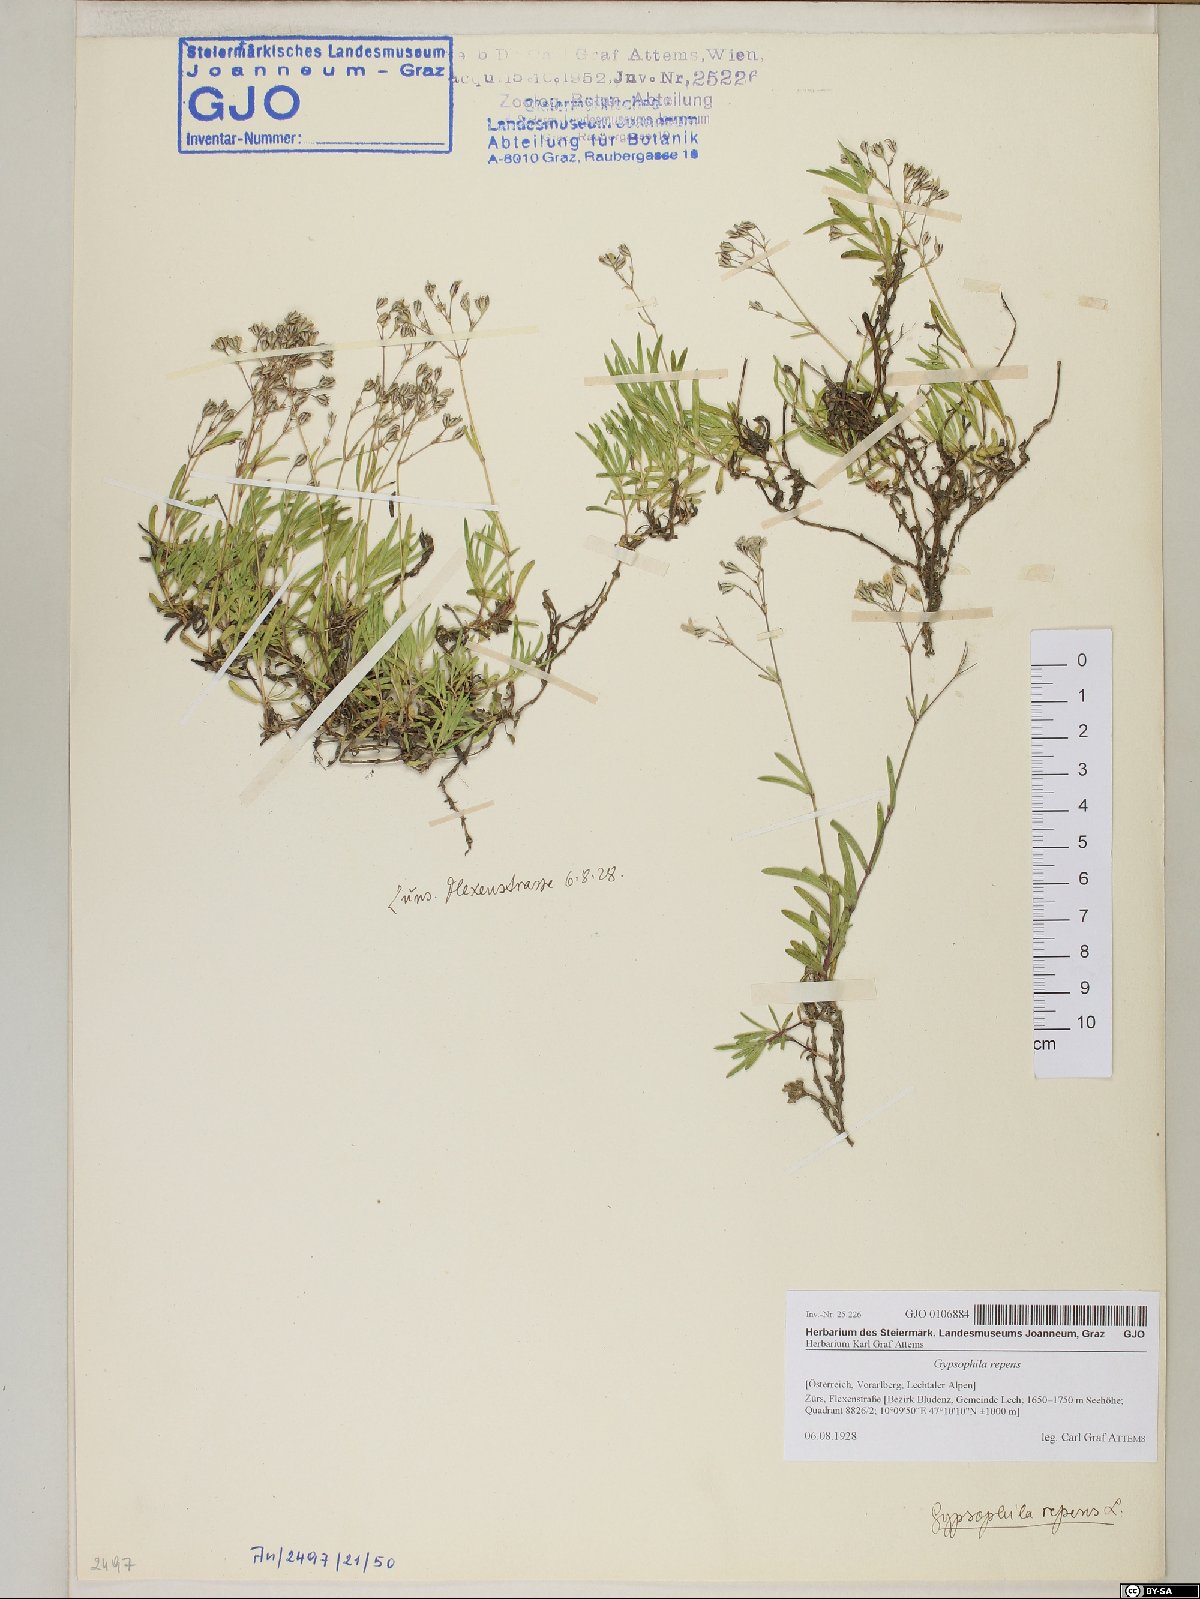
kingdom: Plantae
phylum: Tracheophyta
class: Magnoliopsida
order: Caryophyllales
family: Caryophyllaceae
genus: Gypsophila
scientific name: Gypsophila repens
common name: Creeping baby's-breath
